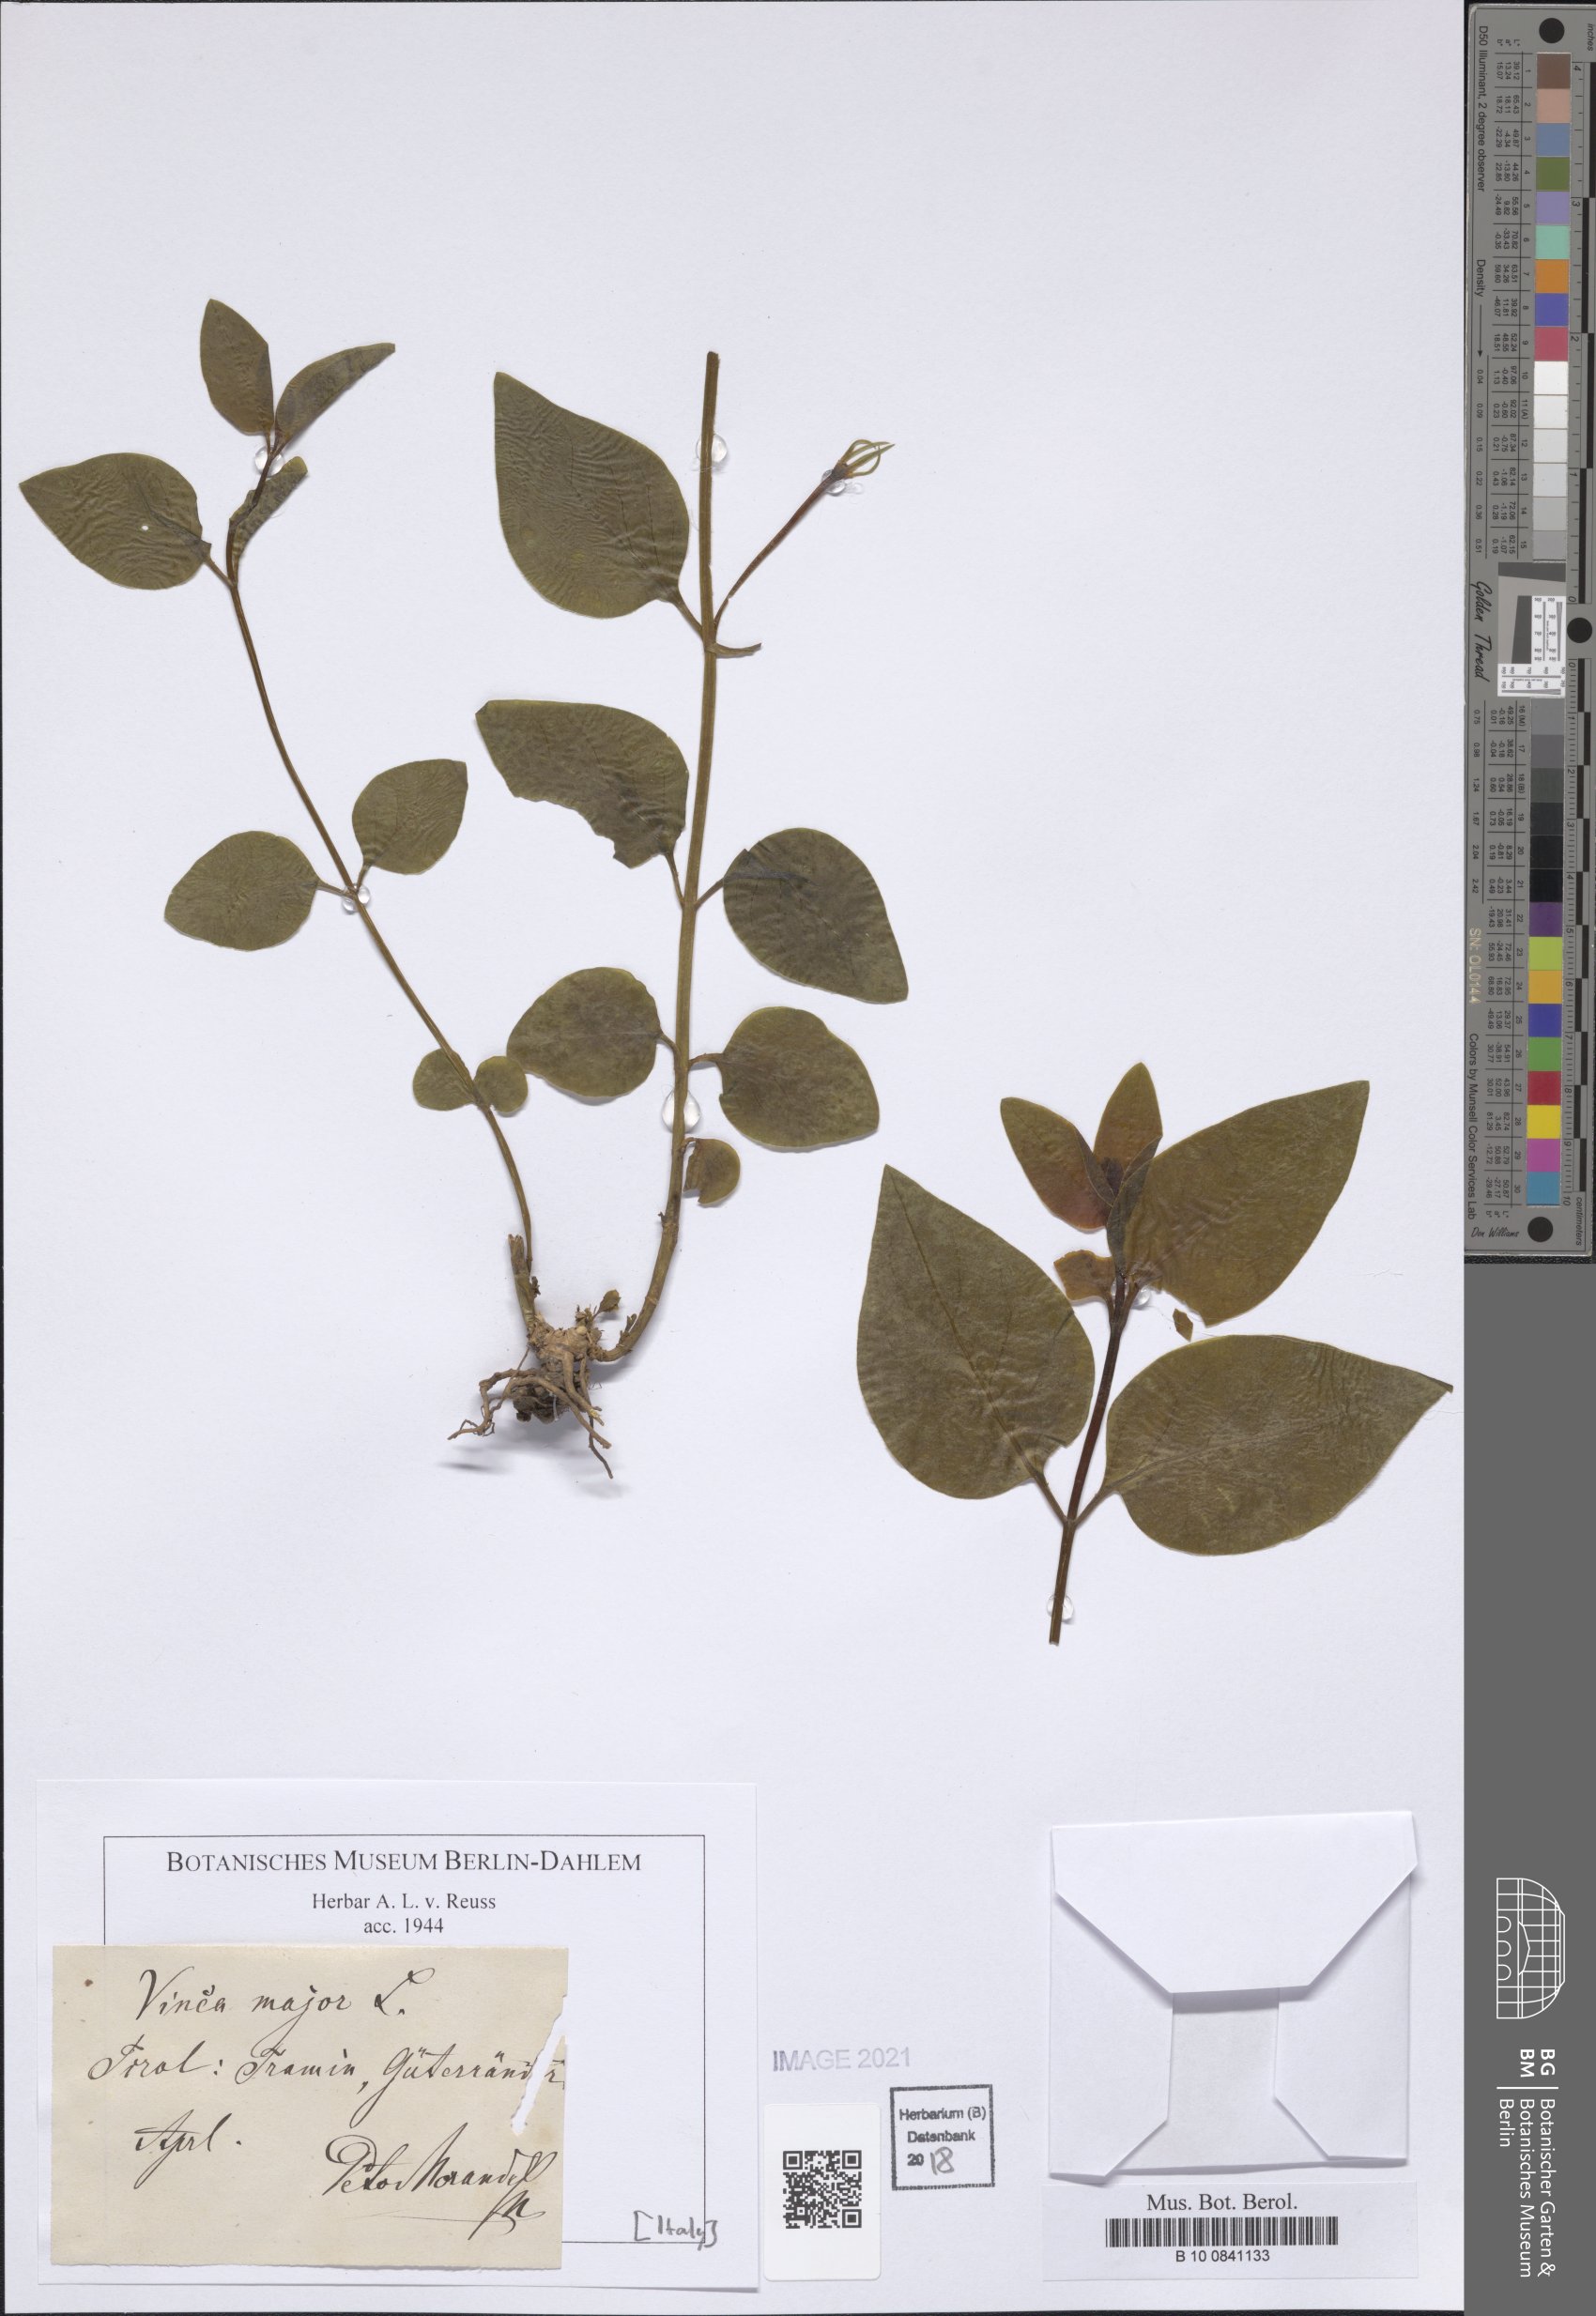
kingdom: Plantae
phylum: Tracheophyta
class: Magnoliopsida
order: Gentianales
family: Apocynaceae
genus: Vinca
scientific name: Vinca major
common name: Greater periwinkle
